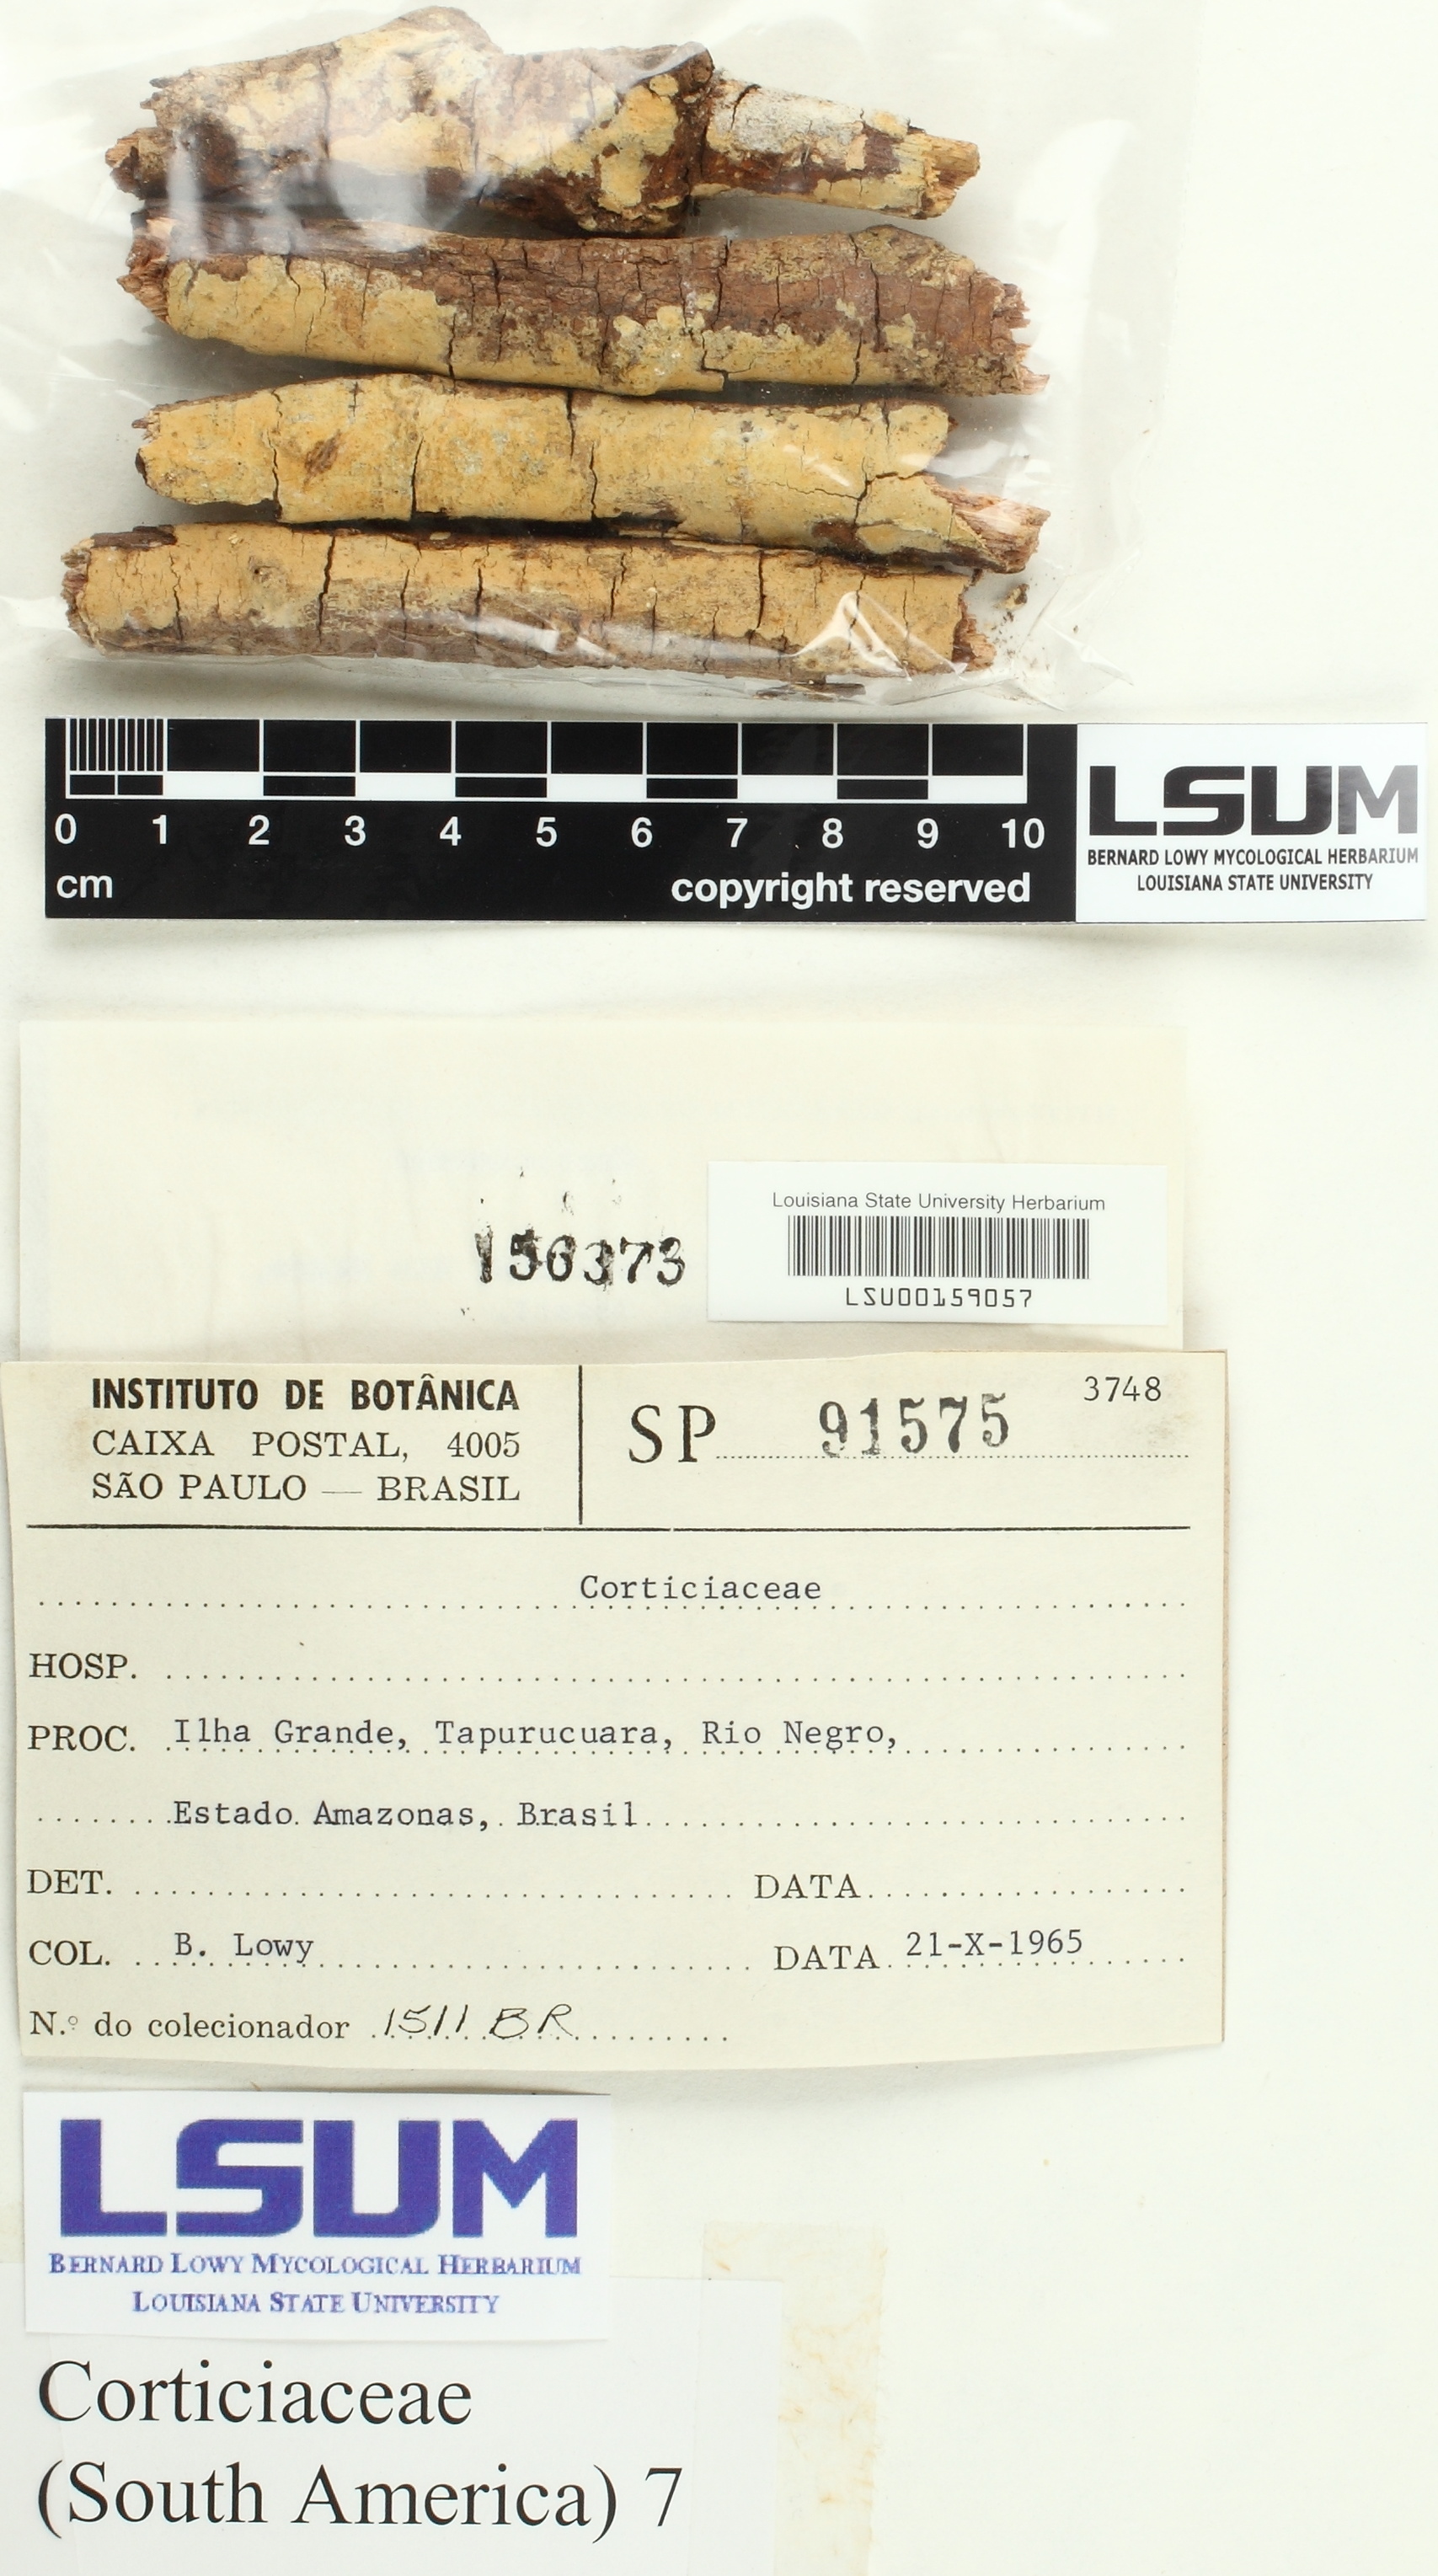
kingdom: Fungi
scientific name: Fungi
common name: Fungi
